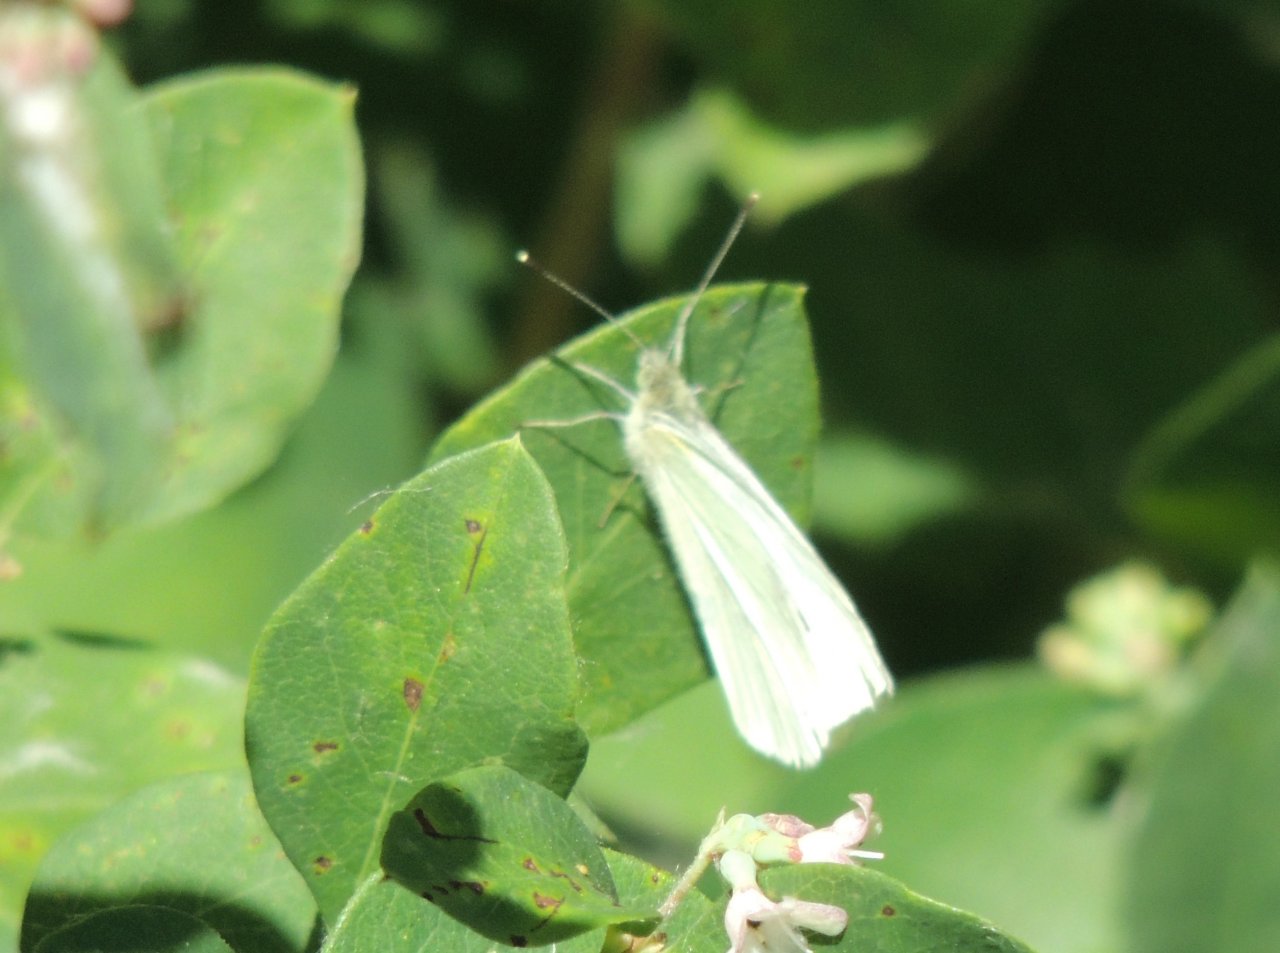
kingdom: Animalia
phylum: Arthropoda
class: Insecta
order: Lepidoptera
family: Pieridae
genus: Pieris
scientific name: Pieris rapae
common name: Cabbage White
